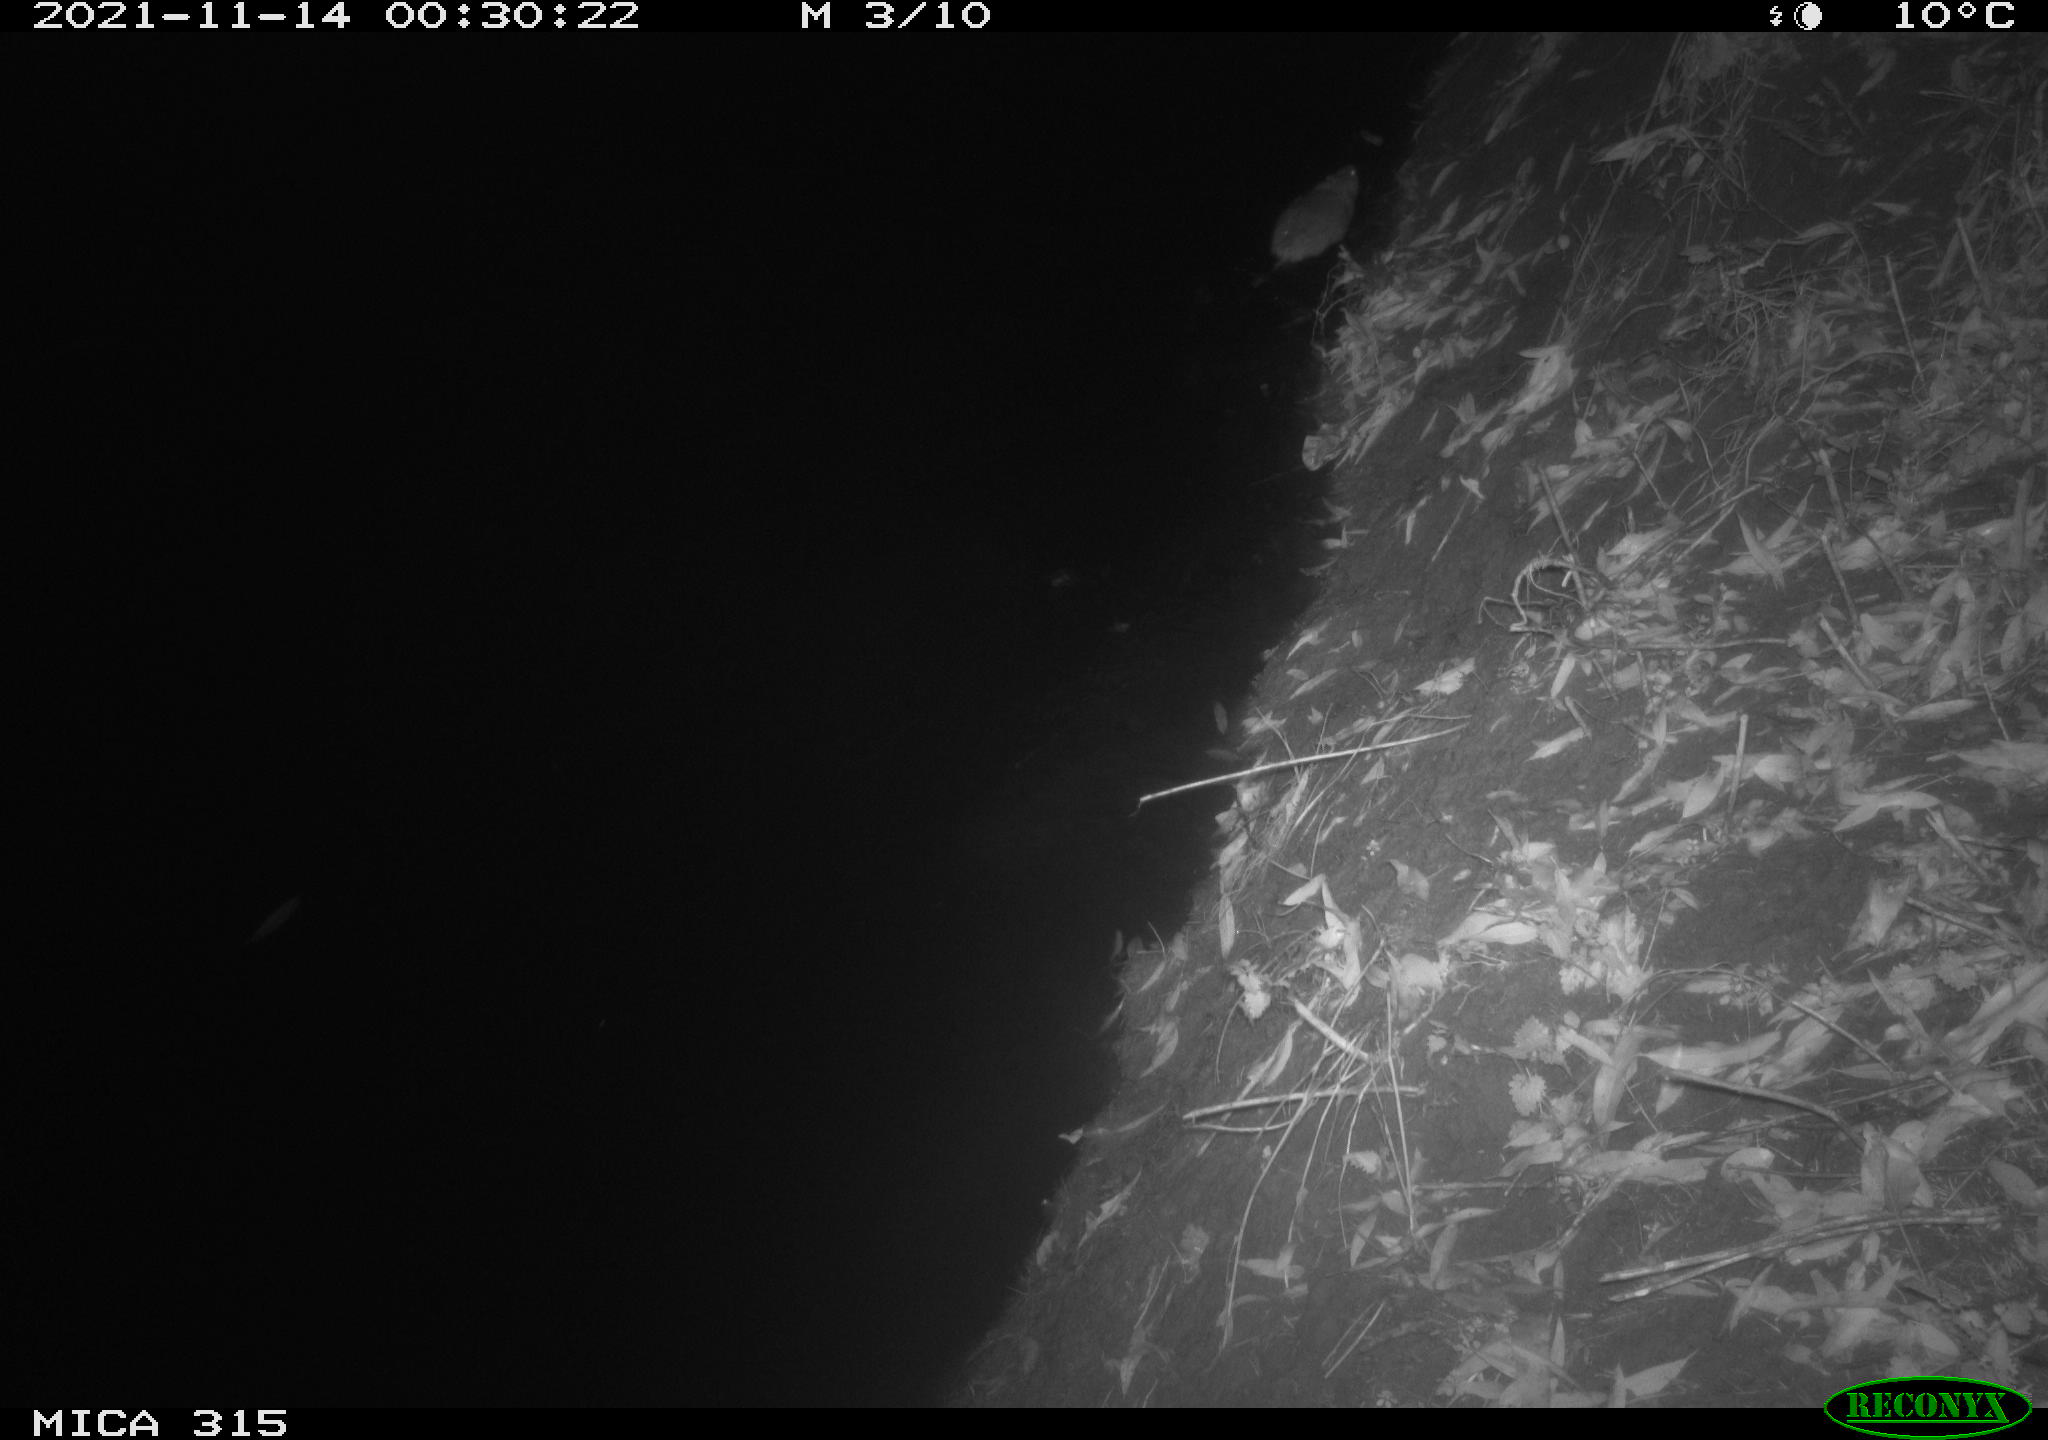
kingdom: Animalia
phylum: Chordata
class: Mammalia
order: Rodentia
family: Muridae
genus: Rattus
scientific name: Rattus norvegicus
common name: Brown rat
